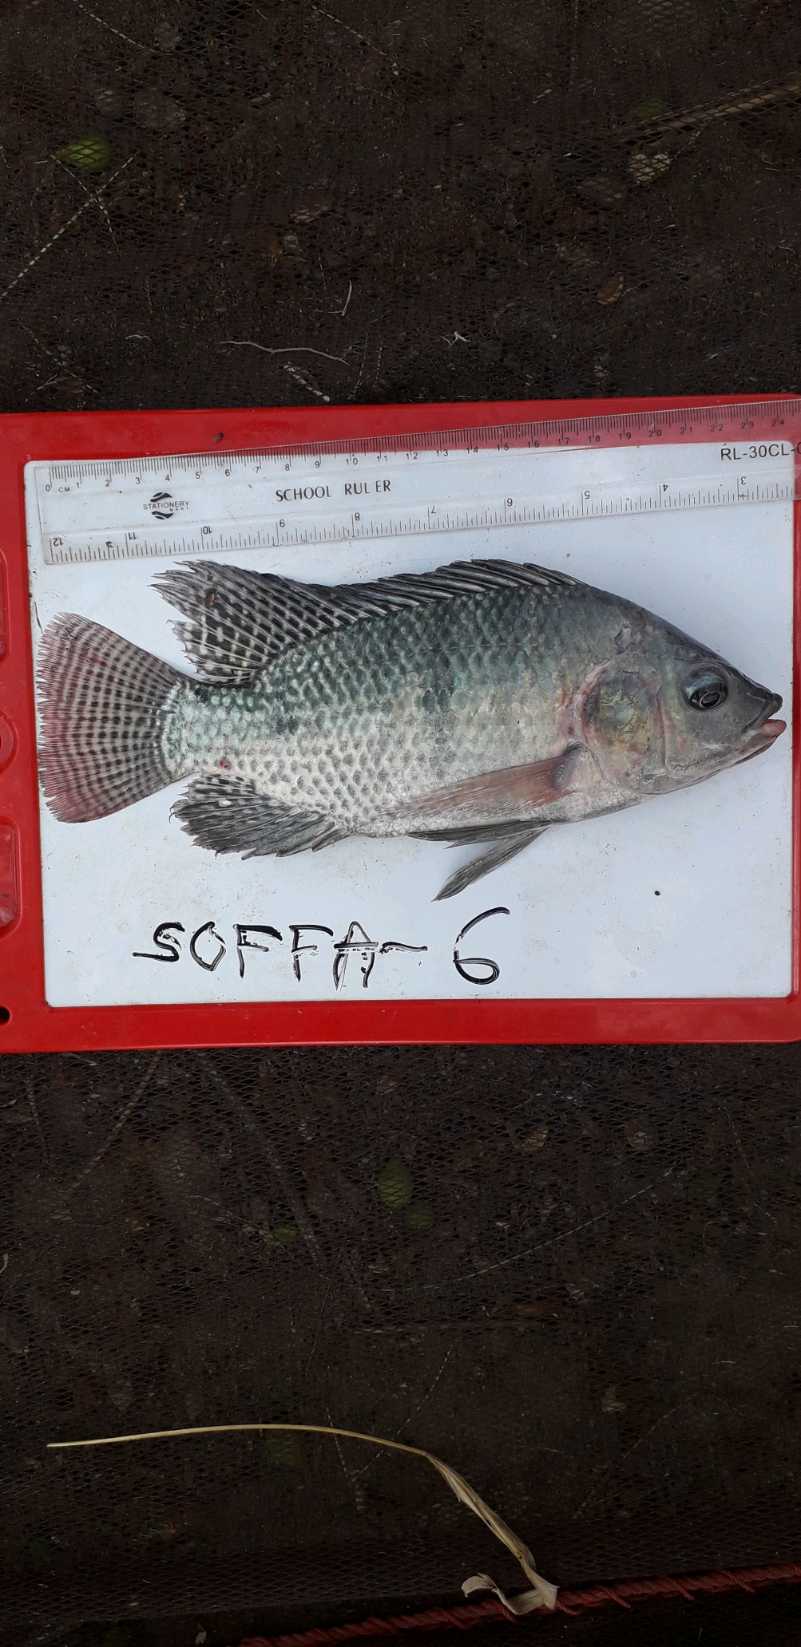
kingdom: Animalia
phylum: Chordata
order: Perciformes
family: Cichlidae
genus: Oreochromis
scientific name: Oreochromis niloticus
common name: Nile tilapia
